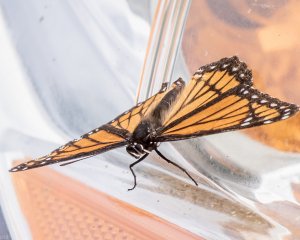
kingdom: Animalia
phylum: Arthropoda
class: Insecta
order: Lepidoptera
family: Nymphalidae
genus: Limenitis
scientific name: Limenitis archippus
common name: Viceroy
